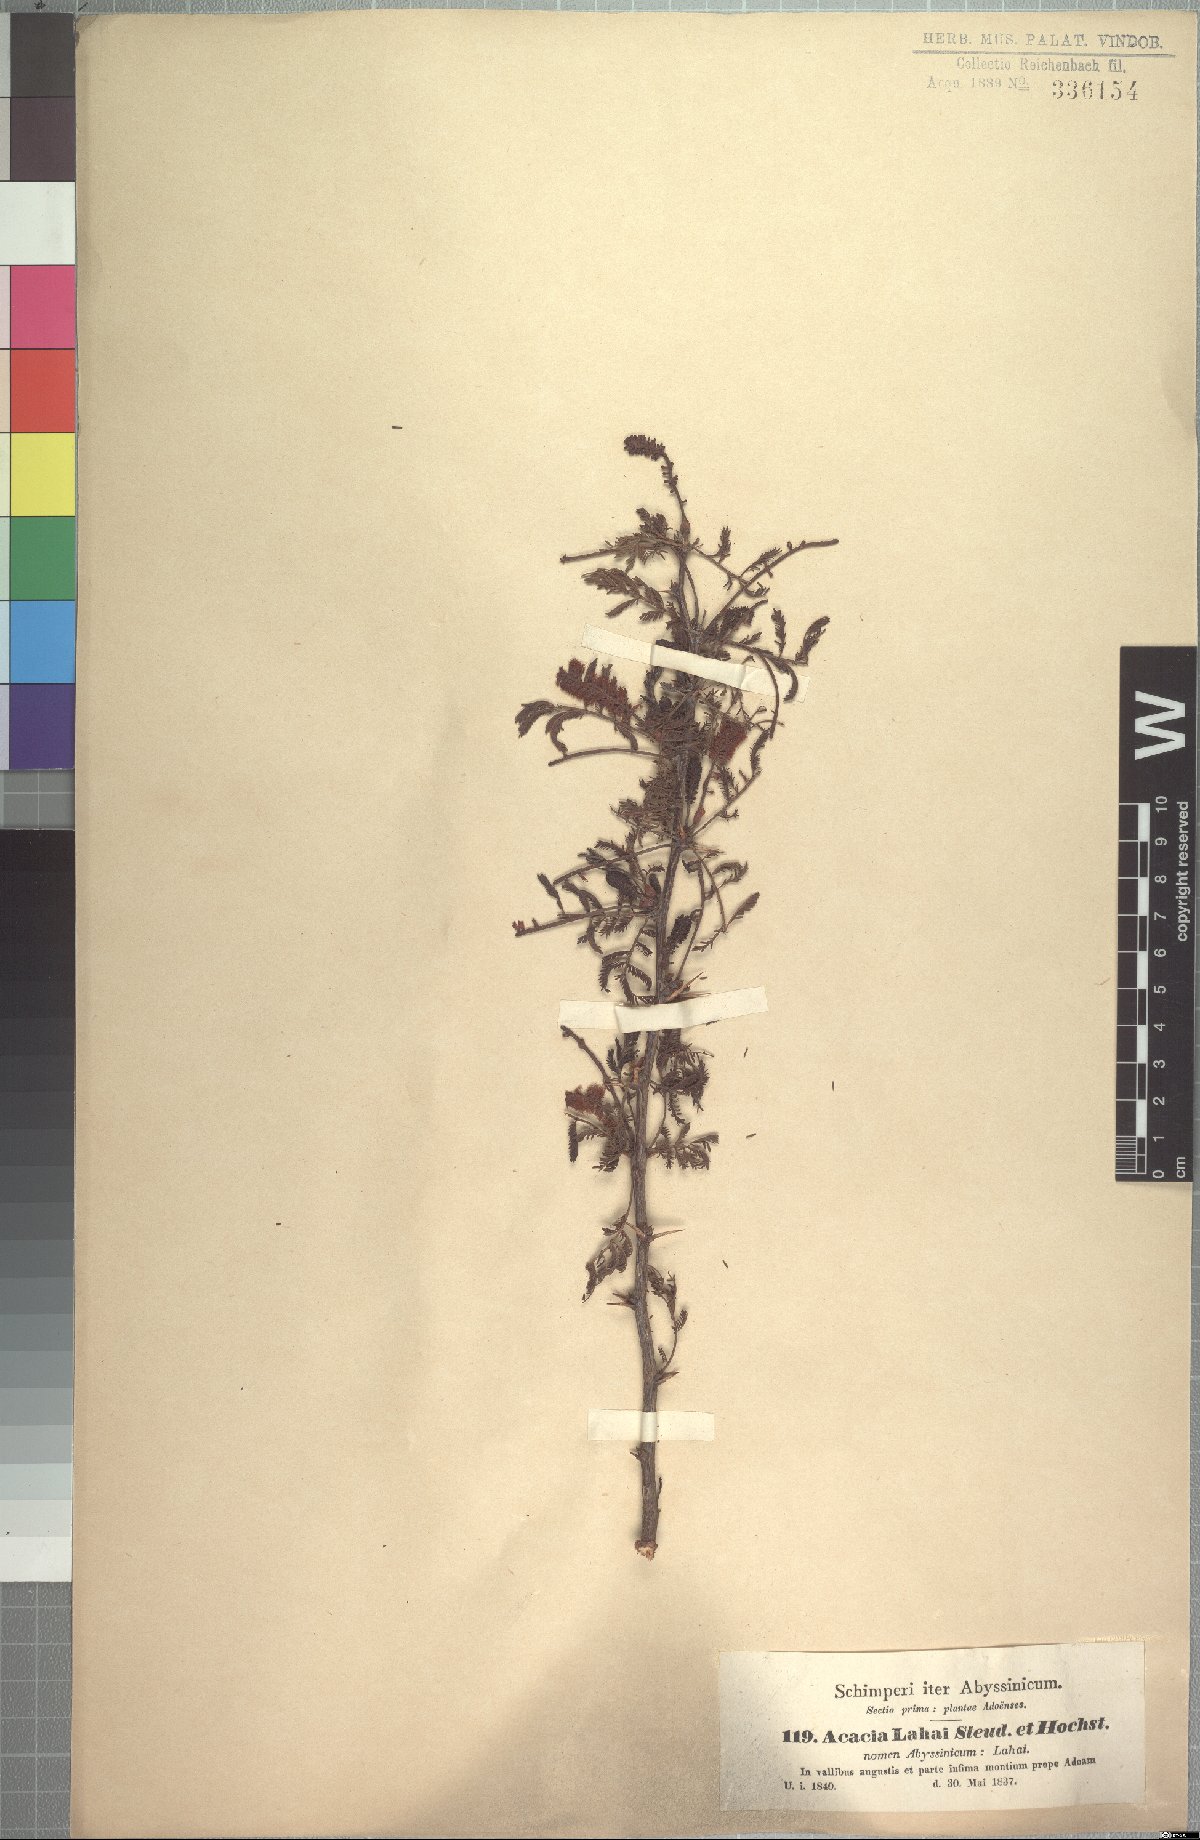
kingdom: Plantae
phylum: Tracheophyta
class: Magnoliopsida
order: Fabales
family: Fabaceae
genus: Vachellia
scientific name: Vachellia lahai
